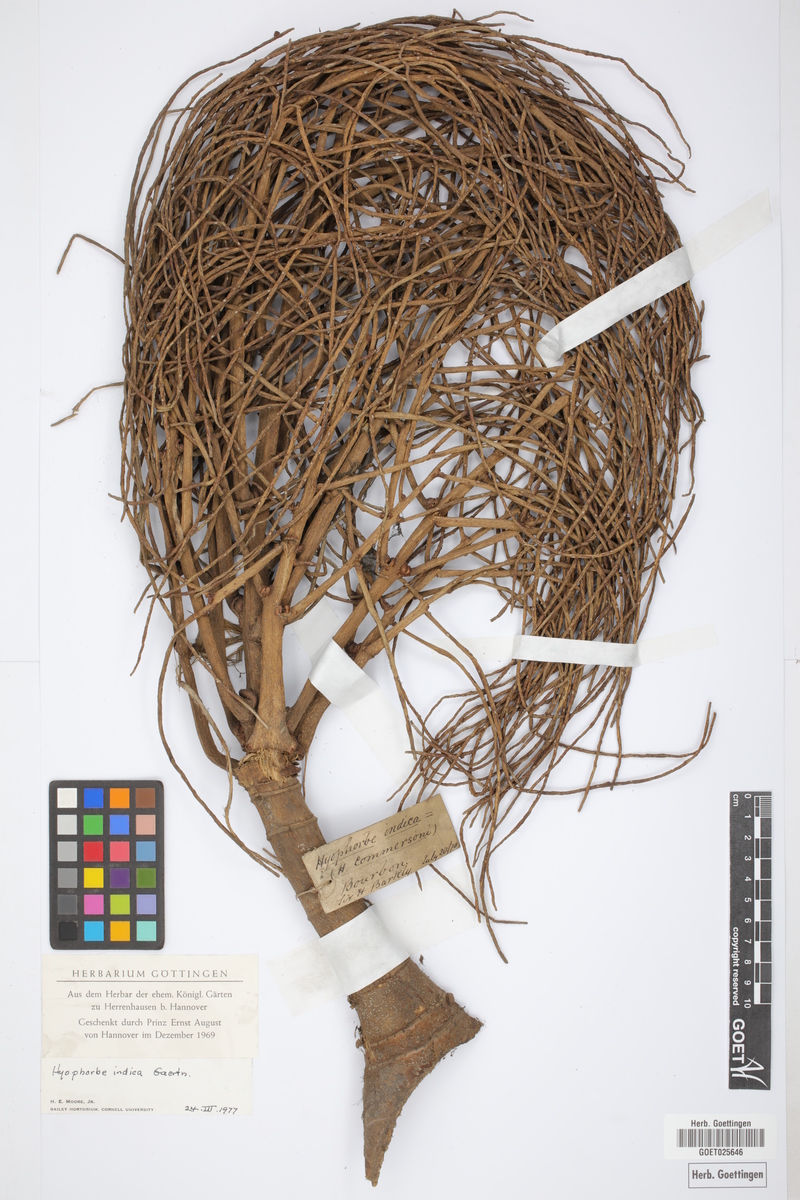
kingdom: Plantae
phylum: Tracheophyta
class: Liliopsida
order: Arecales
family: Arecaceae
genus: Hyophorbe
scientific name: Hyophorbe indica
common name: Palmiste poison
